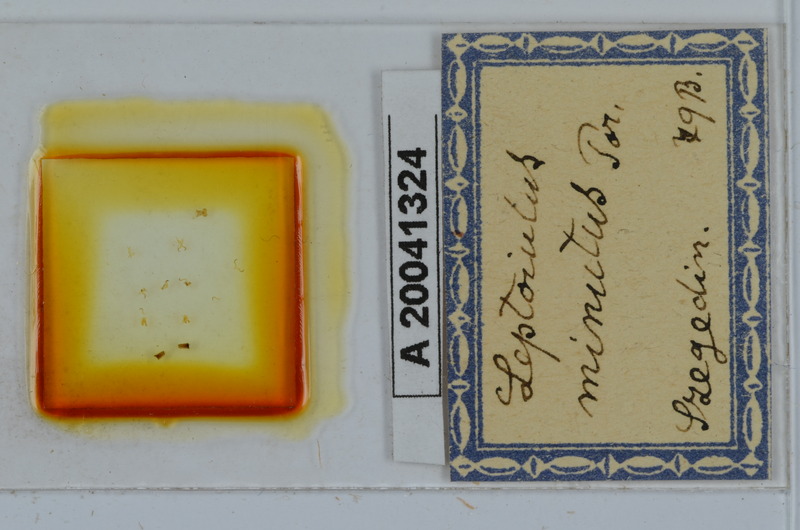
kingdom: Animalia
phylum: Arthropoda
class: Diplopoda
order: Julida
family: Julidae
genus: Leptoiulus
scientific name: Leptoiulus cibdellus
